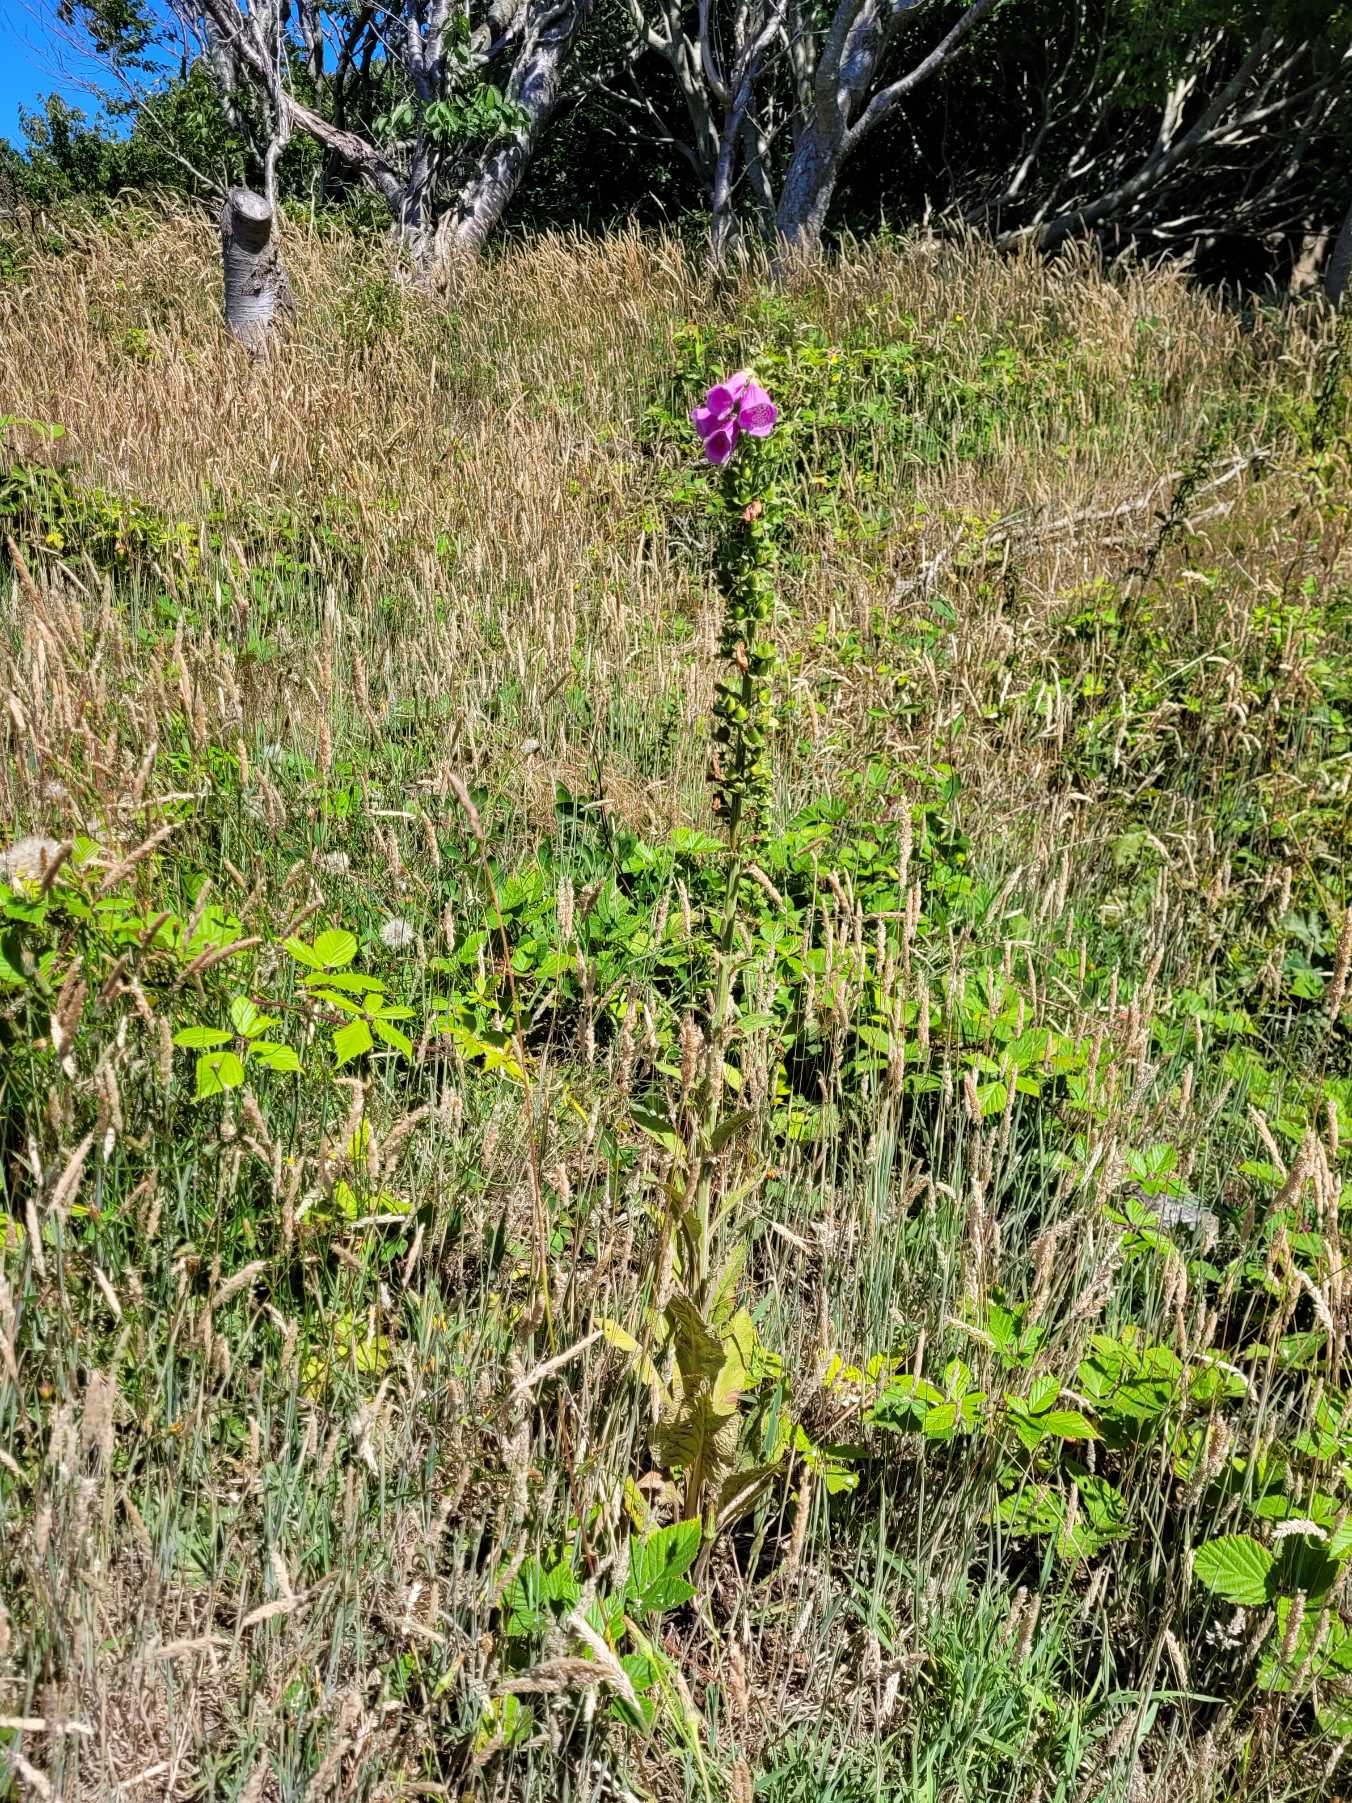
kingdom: Plantae
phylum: Tracheophyta
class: Magnoliopsida
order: Lamiales
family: Plantaginaceae
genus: Digitalis
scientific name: Digitalis purpurea
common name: Almindelig fingerbøl
